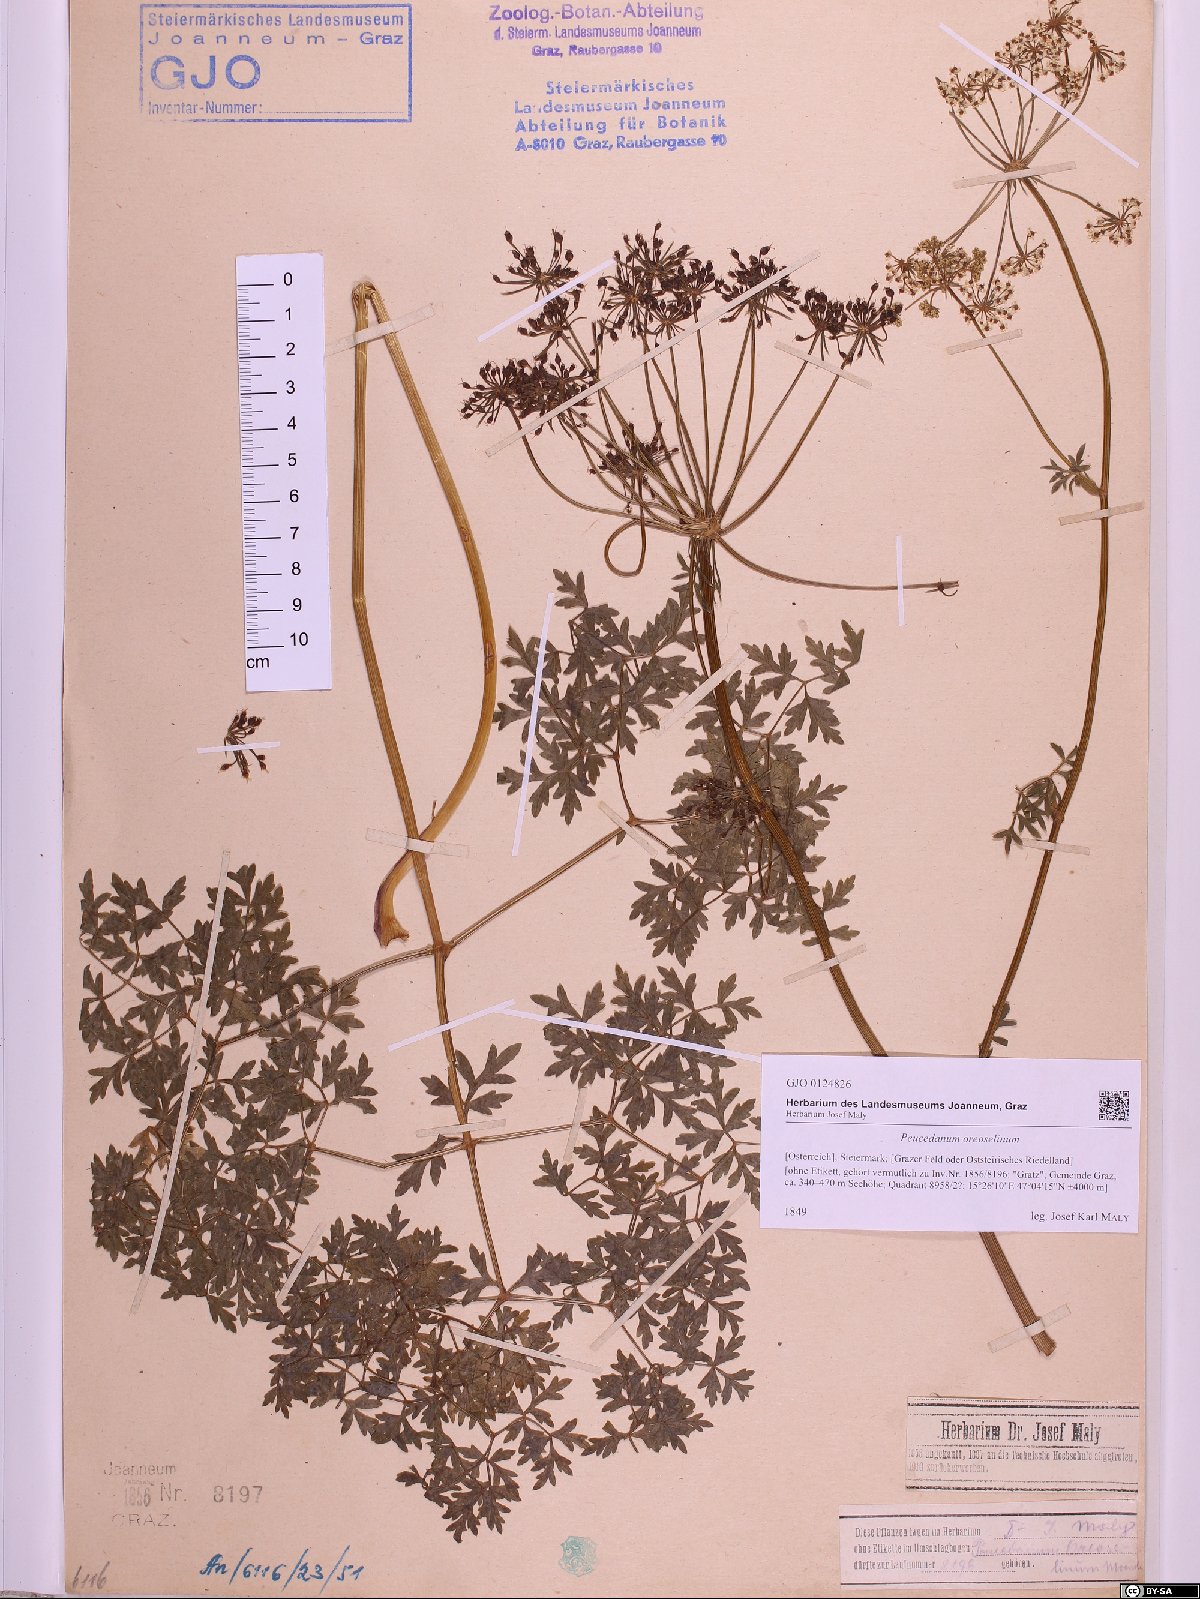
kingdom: Plantae
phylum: Tracheophyta
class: Magnoliopsida
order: Apiales
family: Apiaceae
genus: Oreoselinum
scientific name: Oreoselinum nigrum
